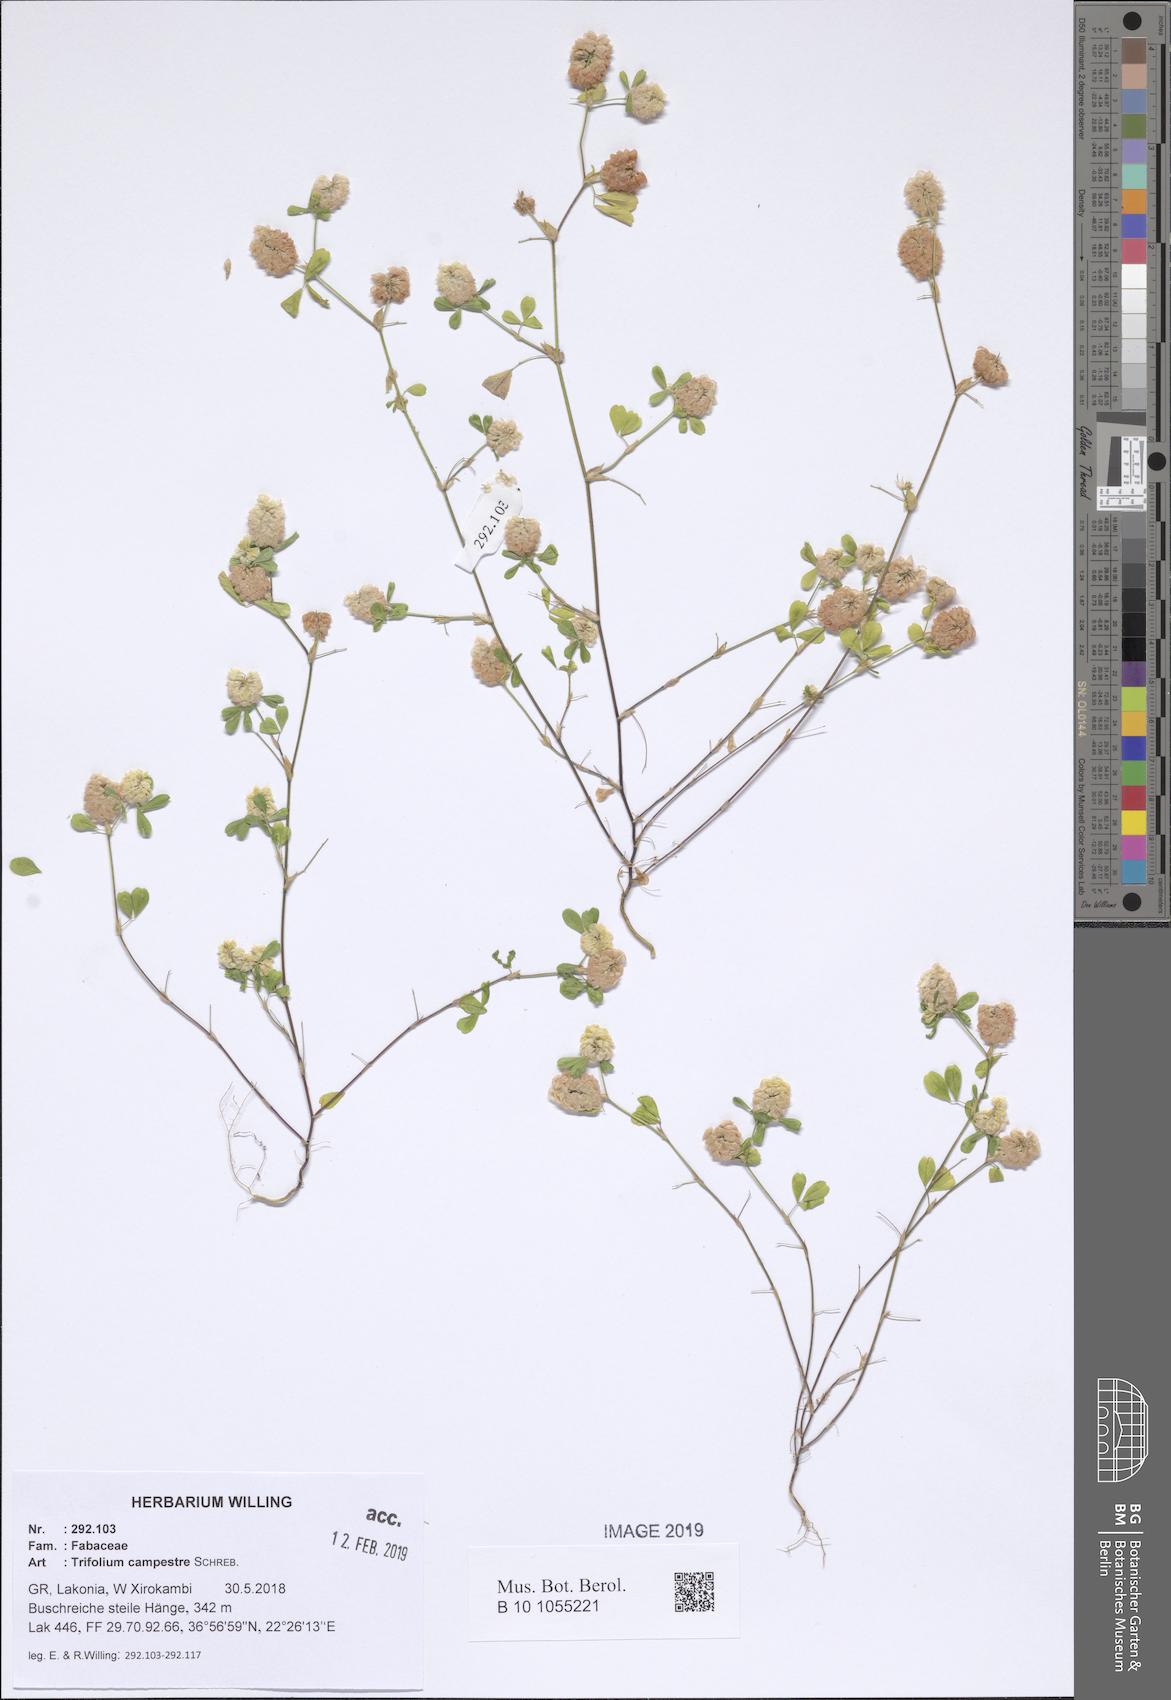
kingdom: Plantae
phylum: Tracheophyta
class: Magnoliopsida
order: Fabales
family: Fabaceae
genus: Trifolium
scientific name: Trifolium campestre
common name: Field clover
